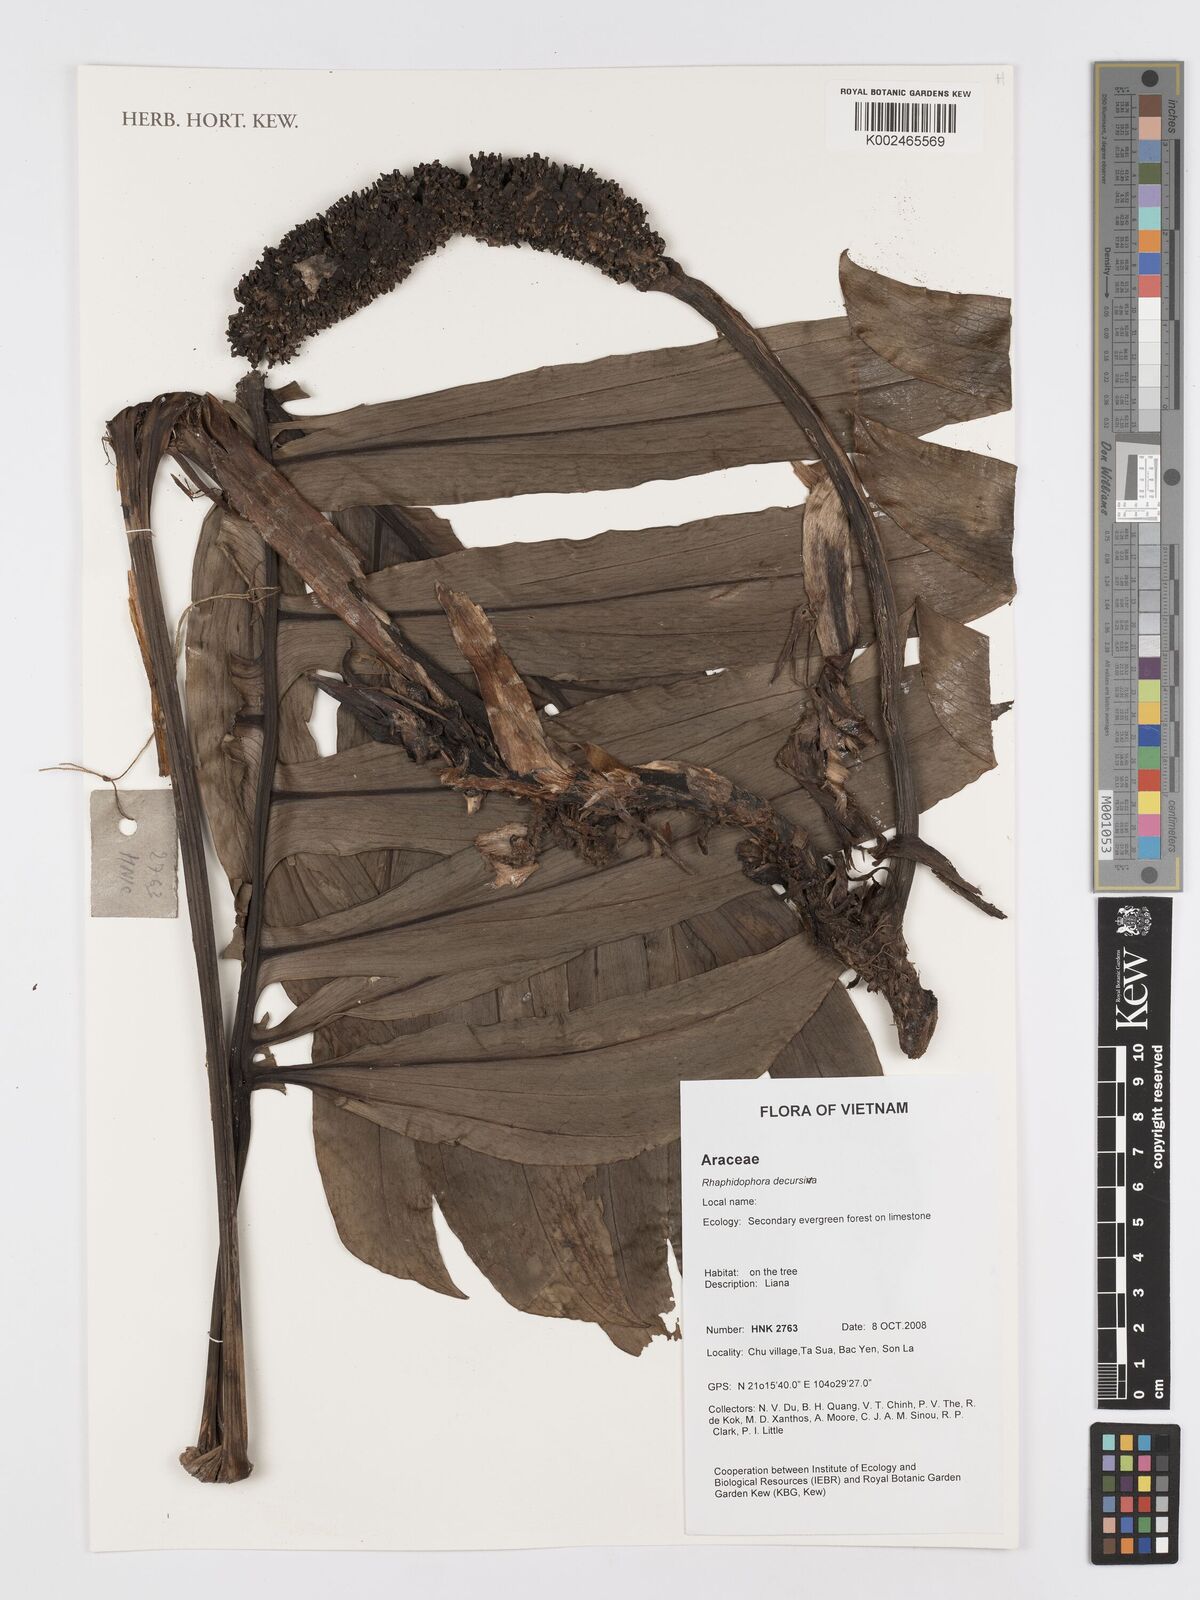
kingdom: Plantae
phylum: Tracheophyta
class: Liliopsida
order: Alismatales
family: Araceae
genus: Rhaphidophora
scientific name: Rhaphidophora decursiva
